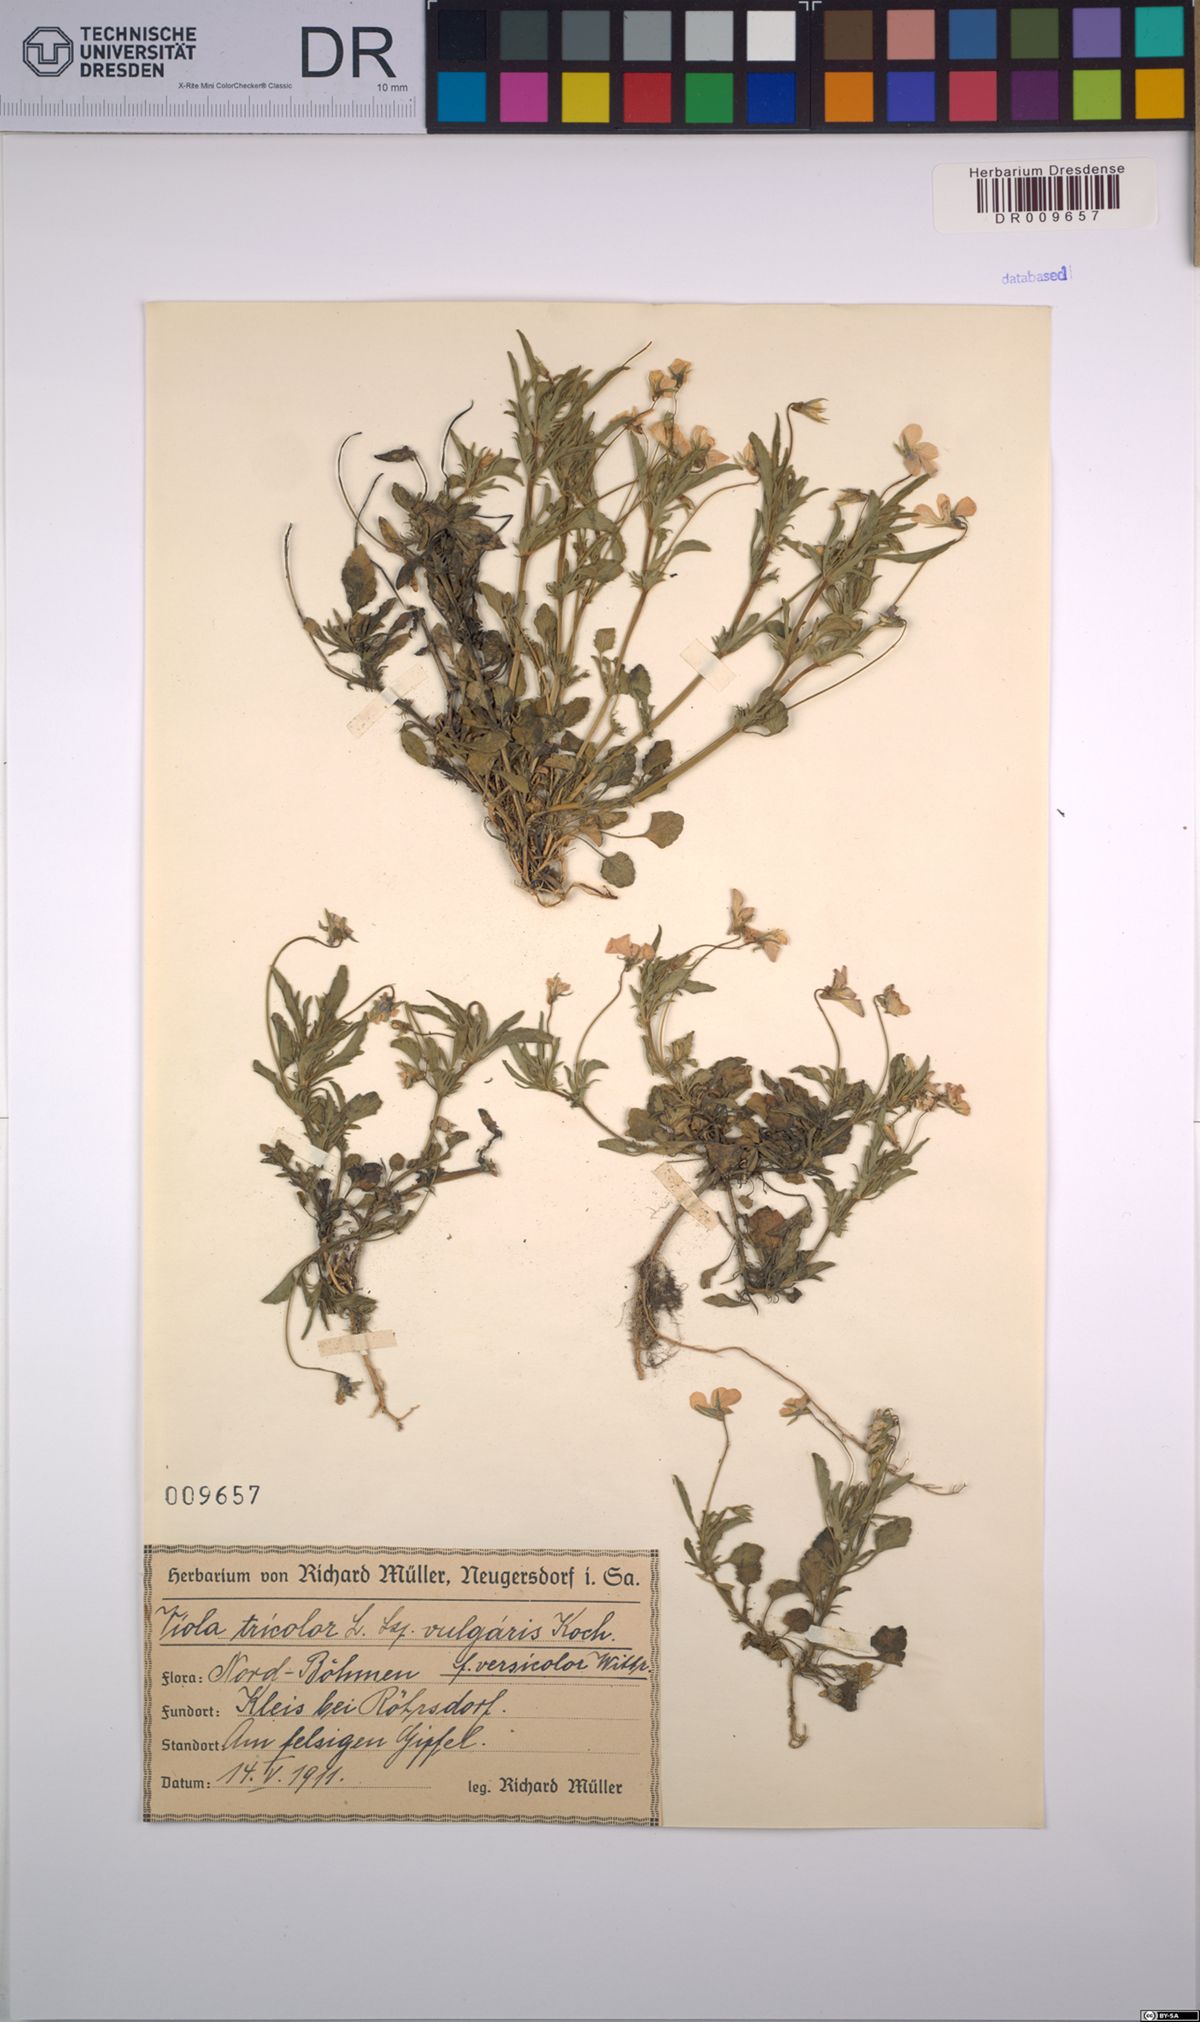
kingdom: Plantae
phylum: Tracheophyta
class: Magnoliopsida
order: Malpighiales
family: Violaceae
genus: Viola
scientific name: Viola tricolor
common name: Pansy
